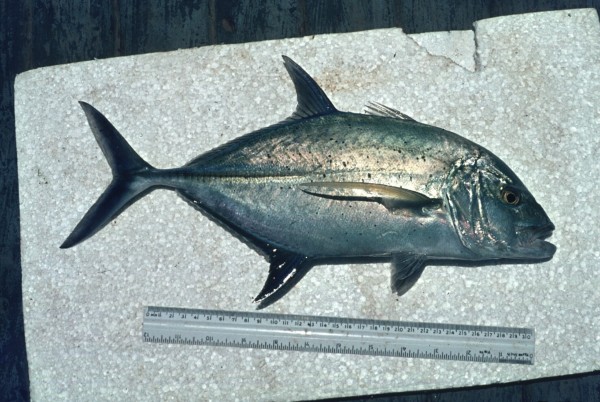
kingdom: Animalia
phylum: Chordata
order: Perciformes
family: Carangidae
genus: Caranx
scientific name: Caranx papuensis
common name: Brassy trevally
